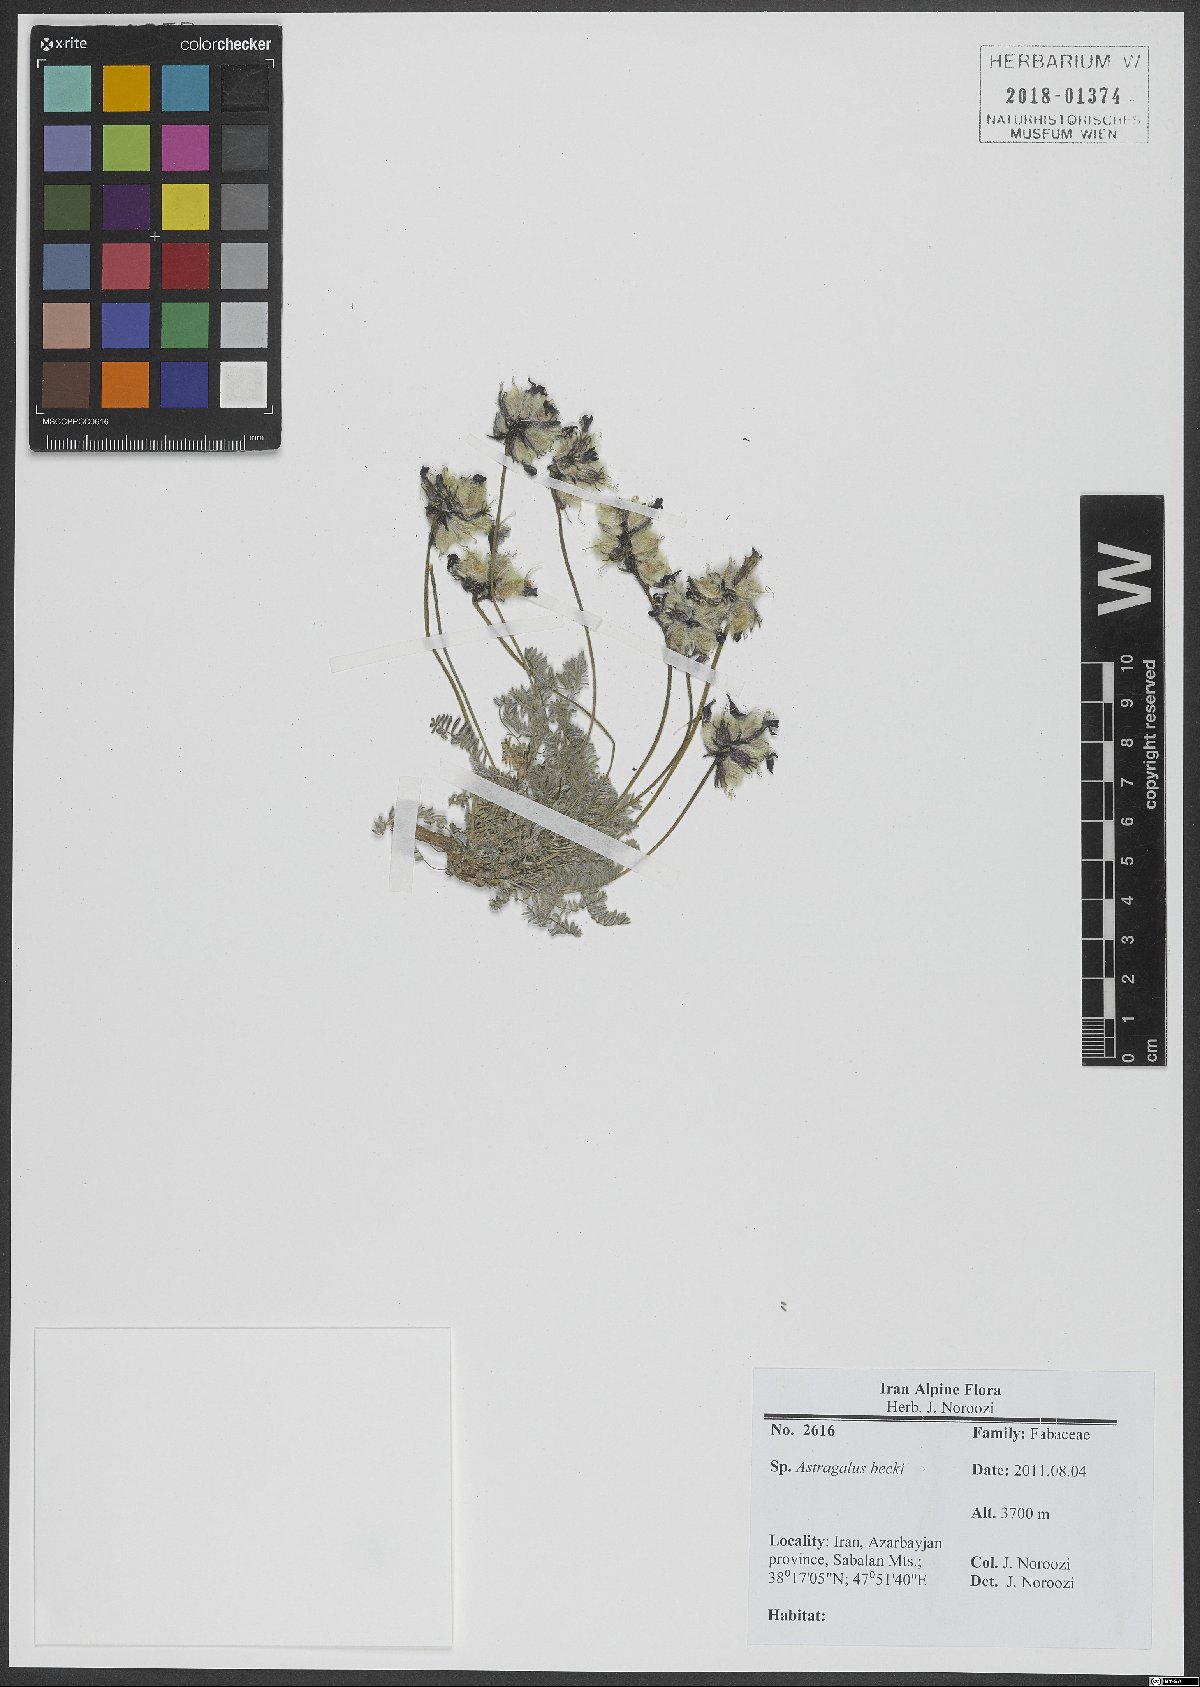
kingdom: Plantae
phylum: Tracheophyta
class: Magnoliopsida
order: Fabales
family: Fabaceae
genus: Astragalus
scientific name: Astragalus beckii
